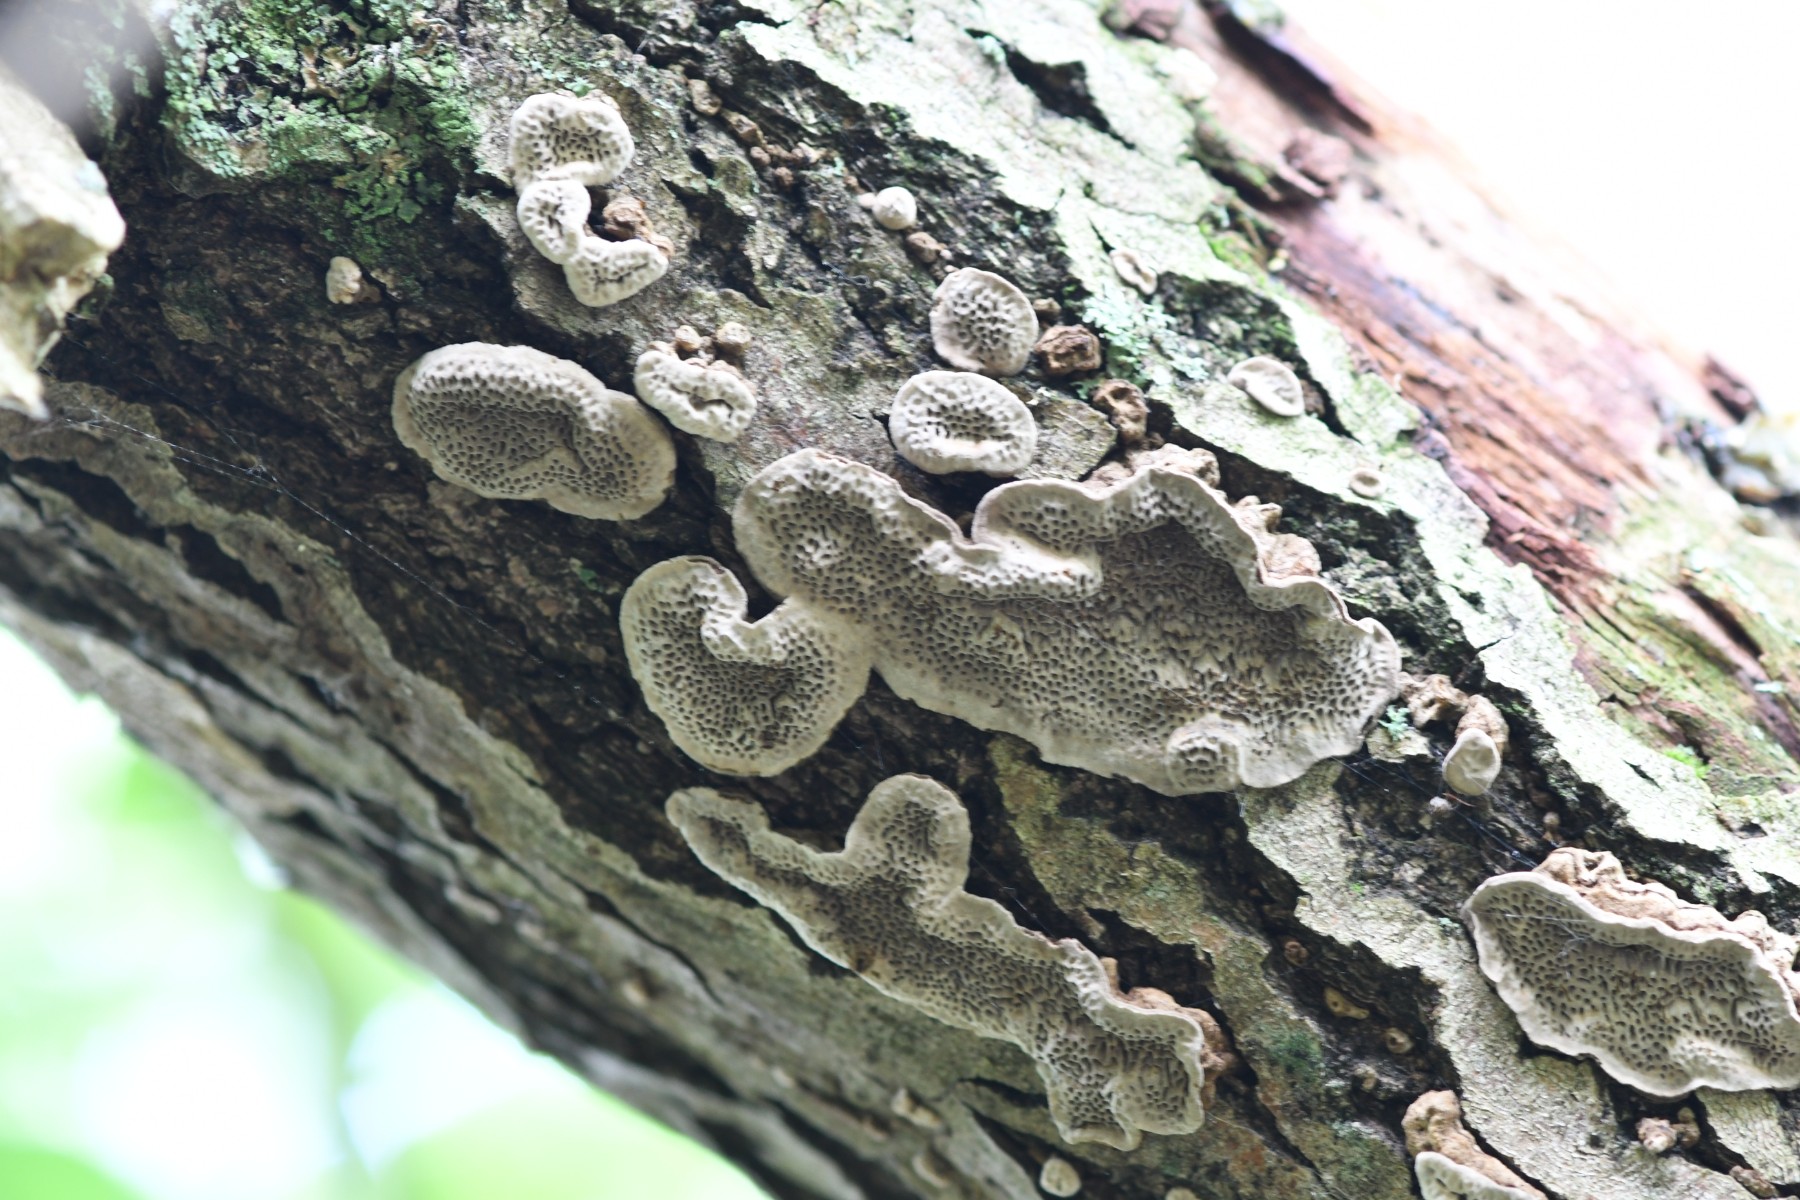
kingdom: Fungi
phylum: Basidiomycota
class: Agaricomycetes
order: Polyporales
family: Polyporaceae
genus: Podofomes
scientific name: Podofomes mollis
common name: blød begporesvamp
